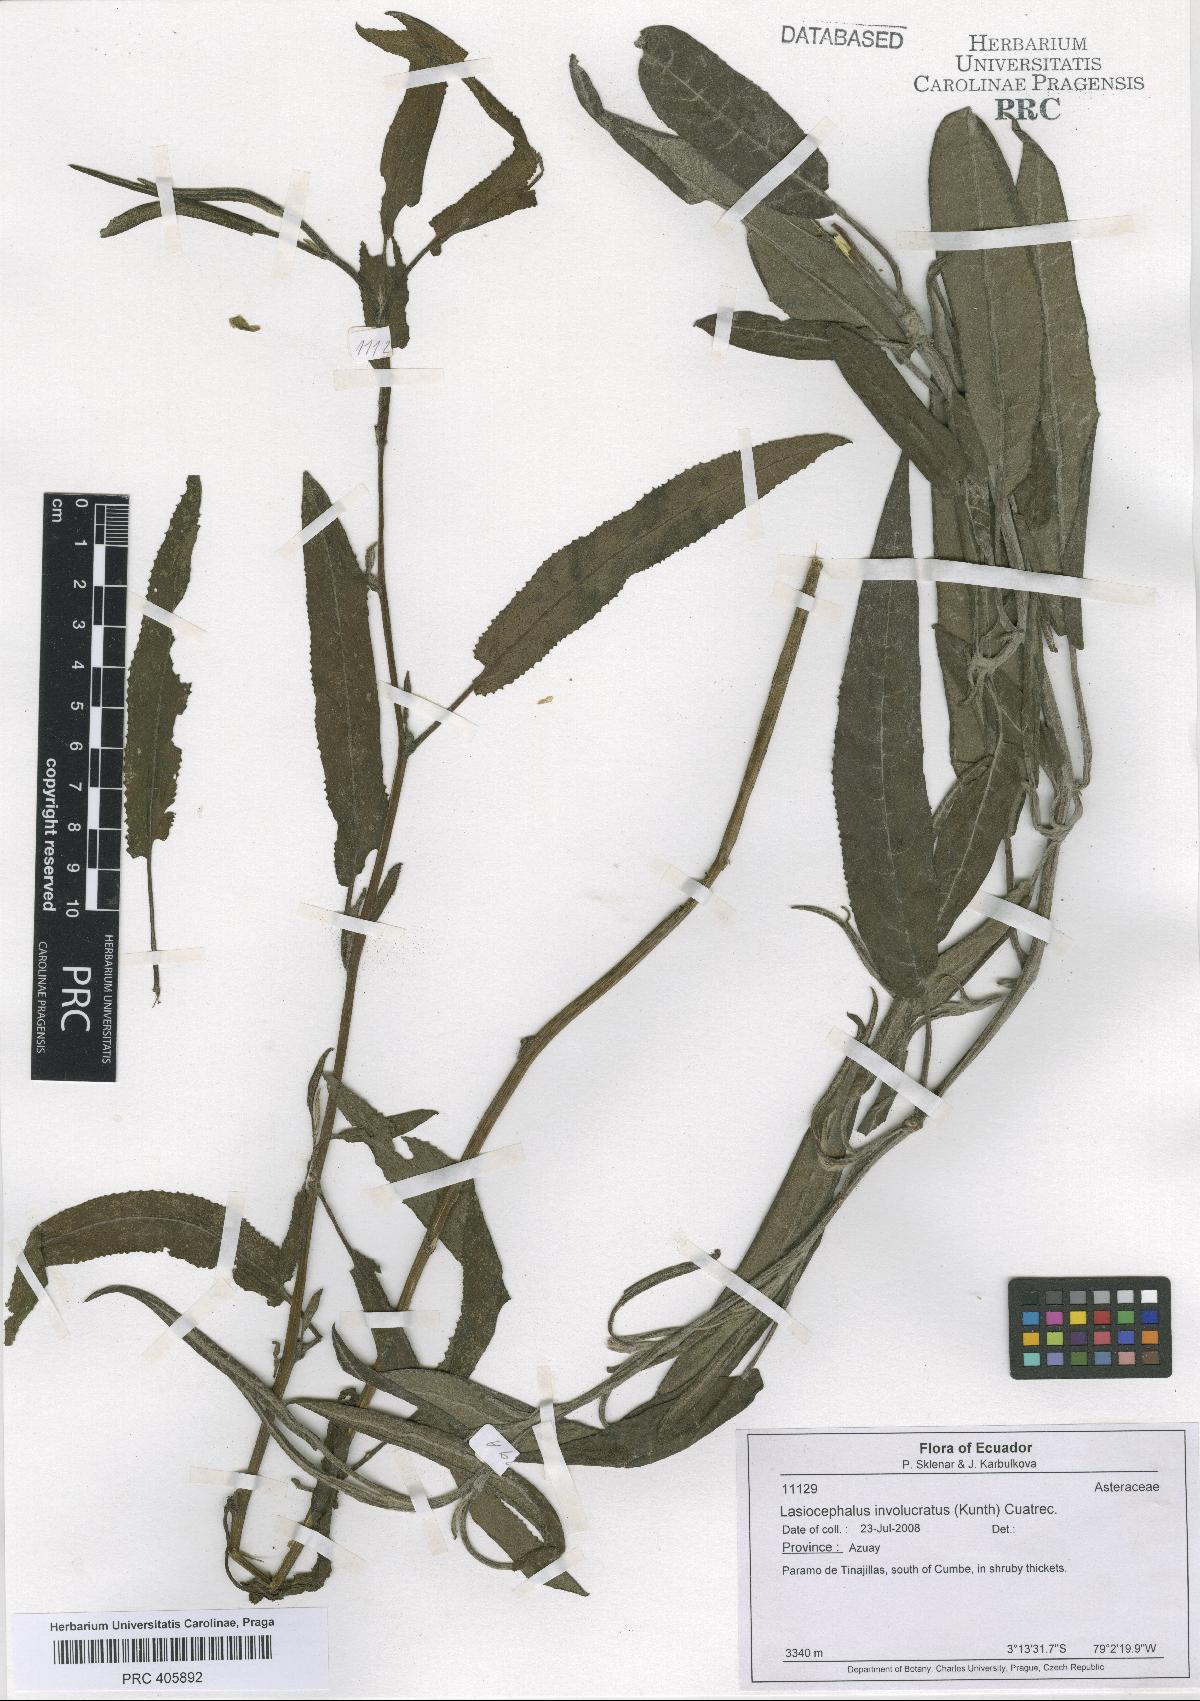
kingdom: Plantae
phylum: Tracheophyta
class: Magnoliopsida
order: Asterales
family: Asteraceae
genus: Aetheolaena
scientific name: Aetheolaena involucrata
